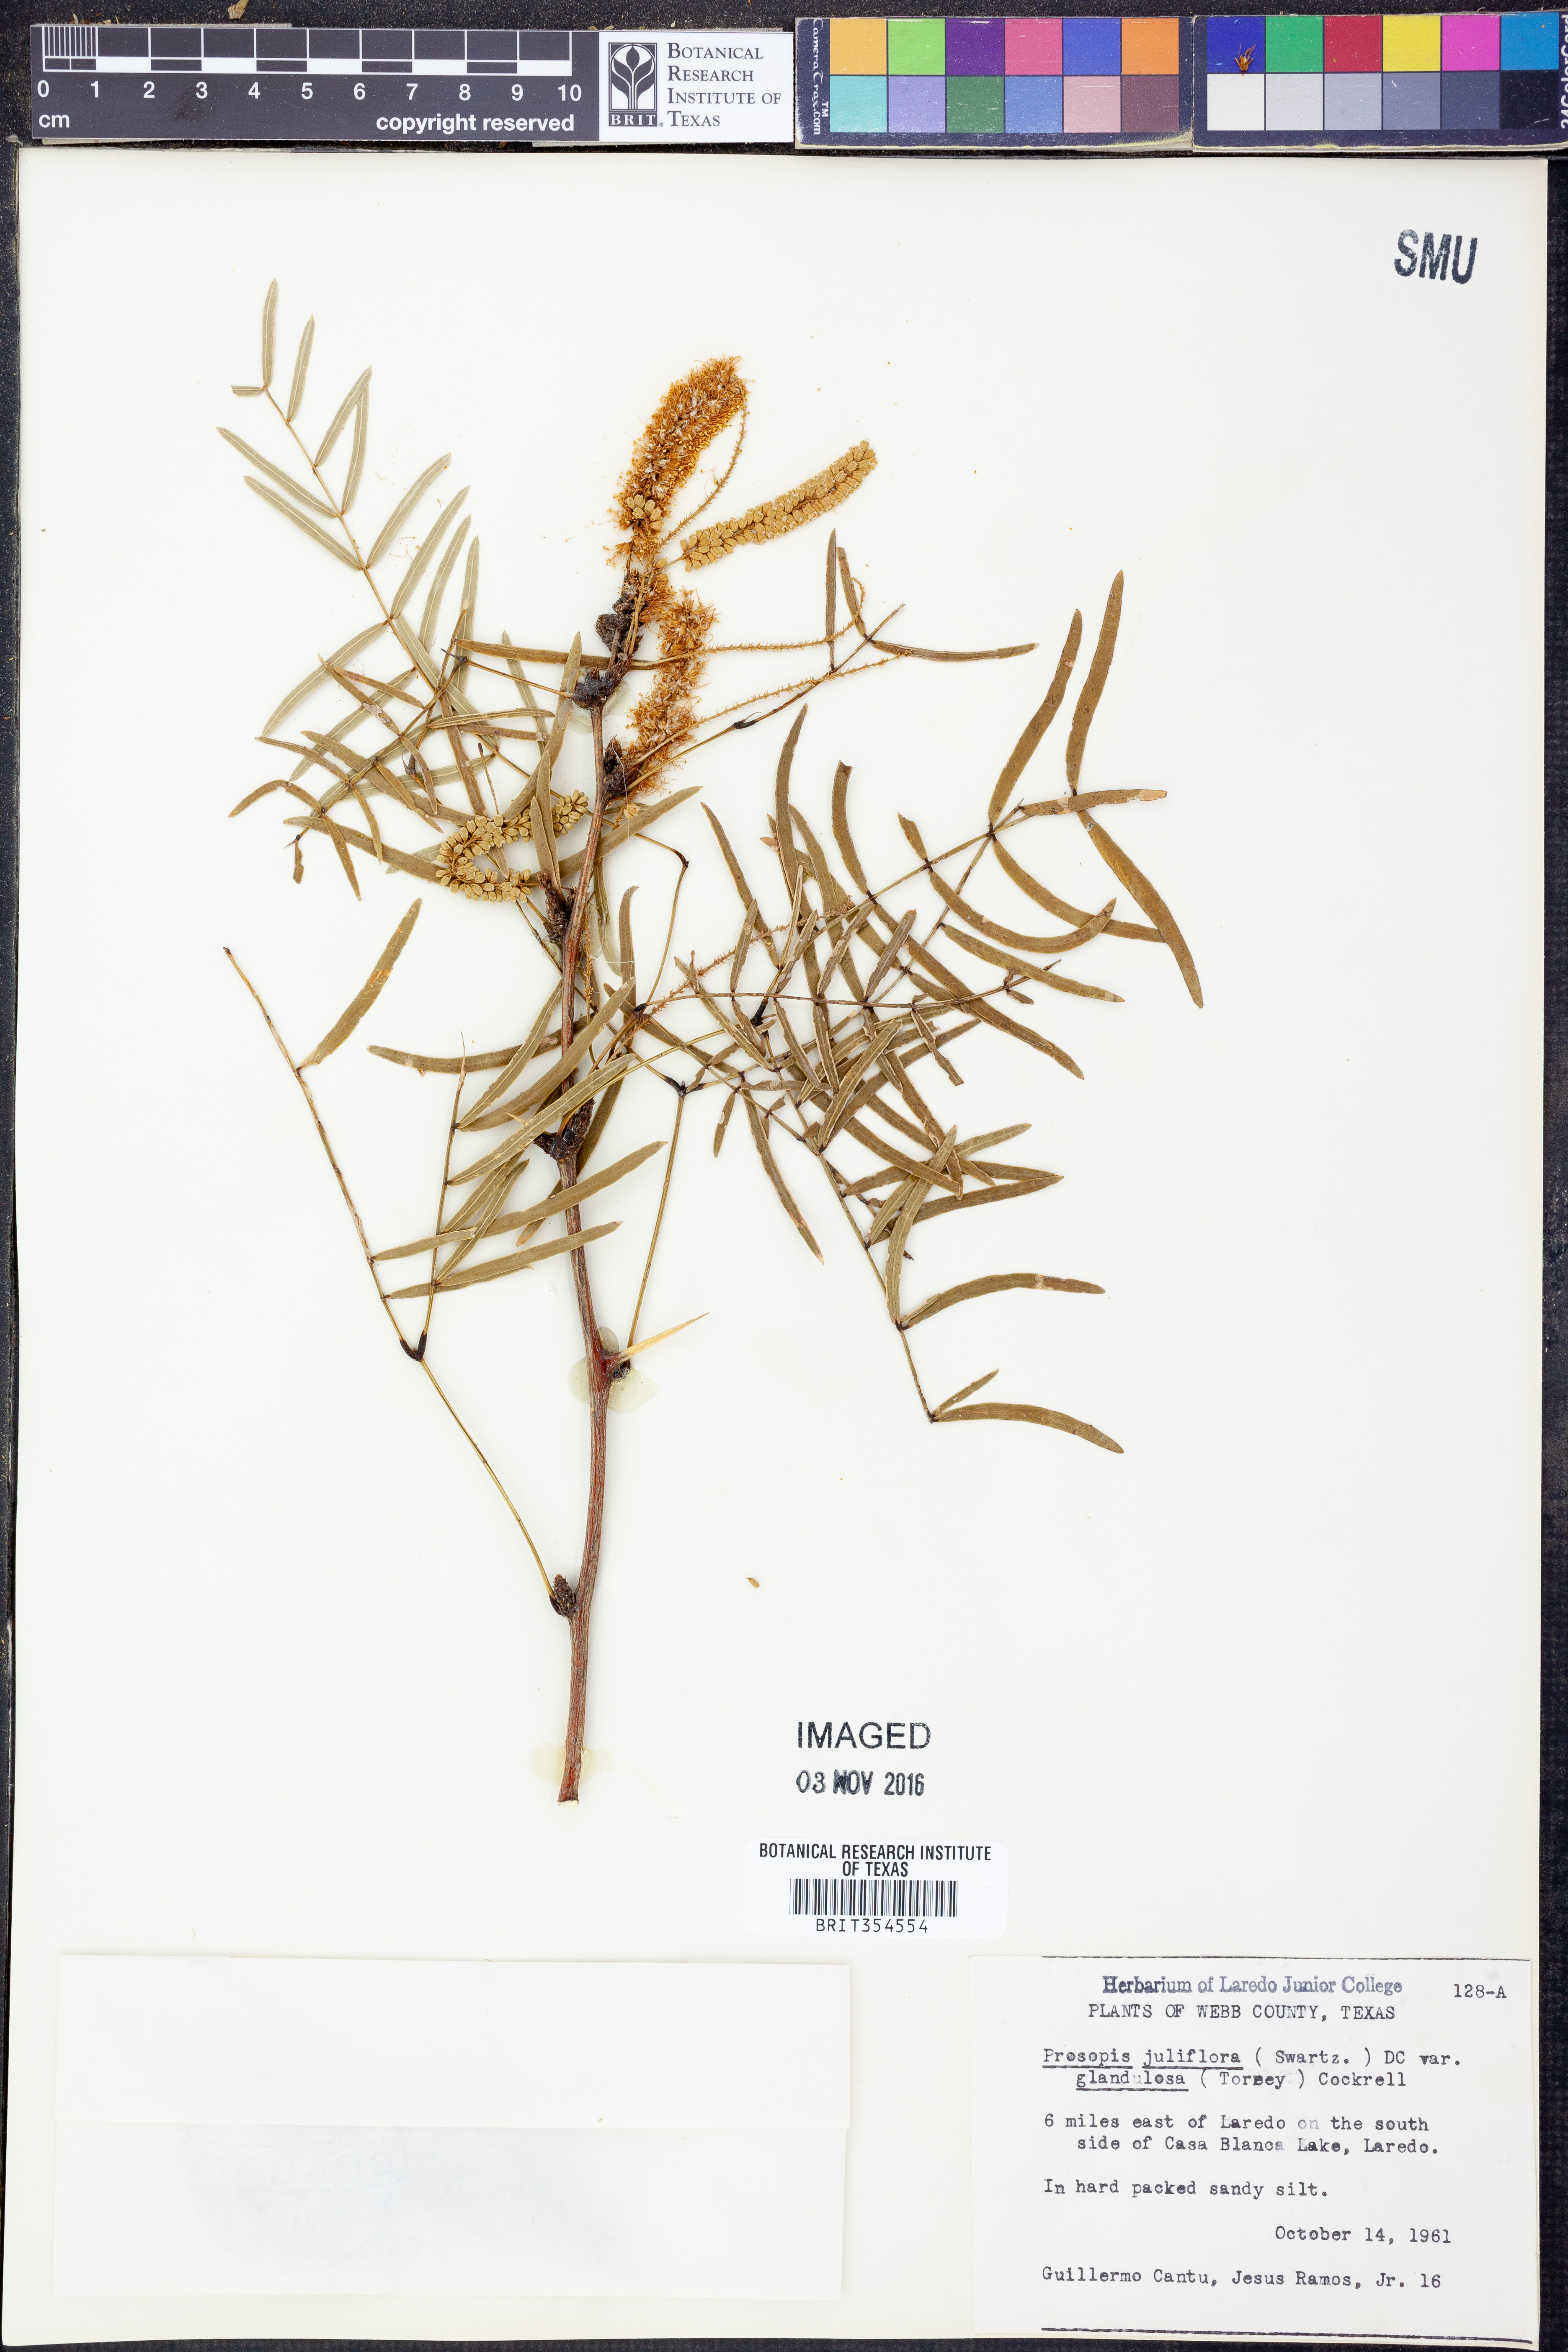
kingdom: Plantae
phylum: Tracheophyta
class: Magnoliopsida
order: Fabales
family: Fabaceae
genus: Prosopis
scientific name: Prosopis glandulosa
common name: Honey mesquite
